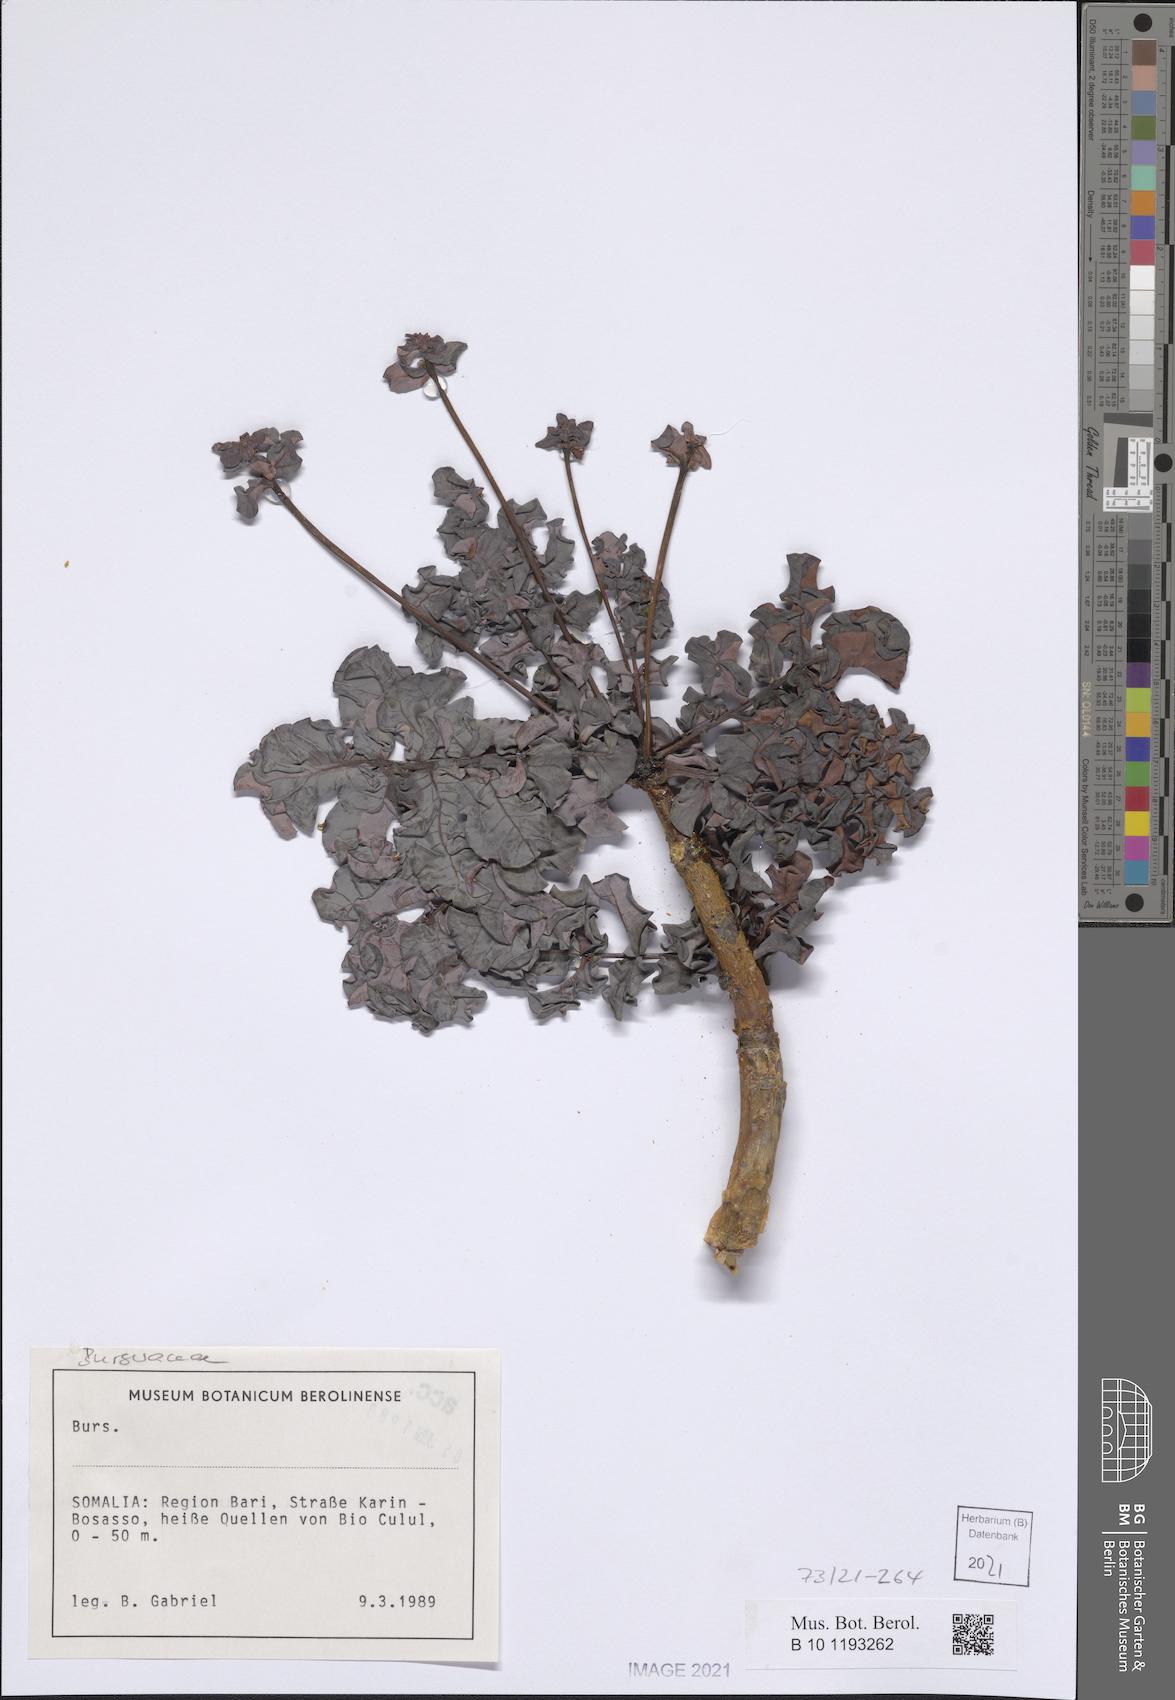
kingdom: Plantae
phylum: Tracheophyta
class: Magnoliopsida
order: Sapindales
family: Burseraceae
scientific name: Burseraceae
